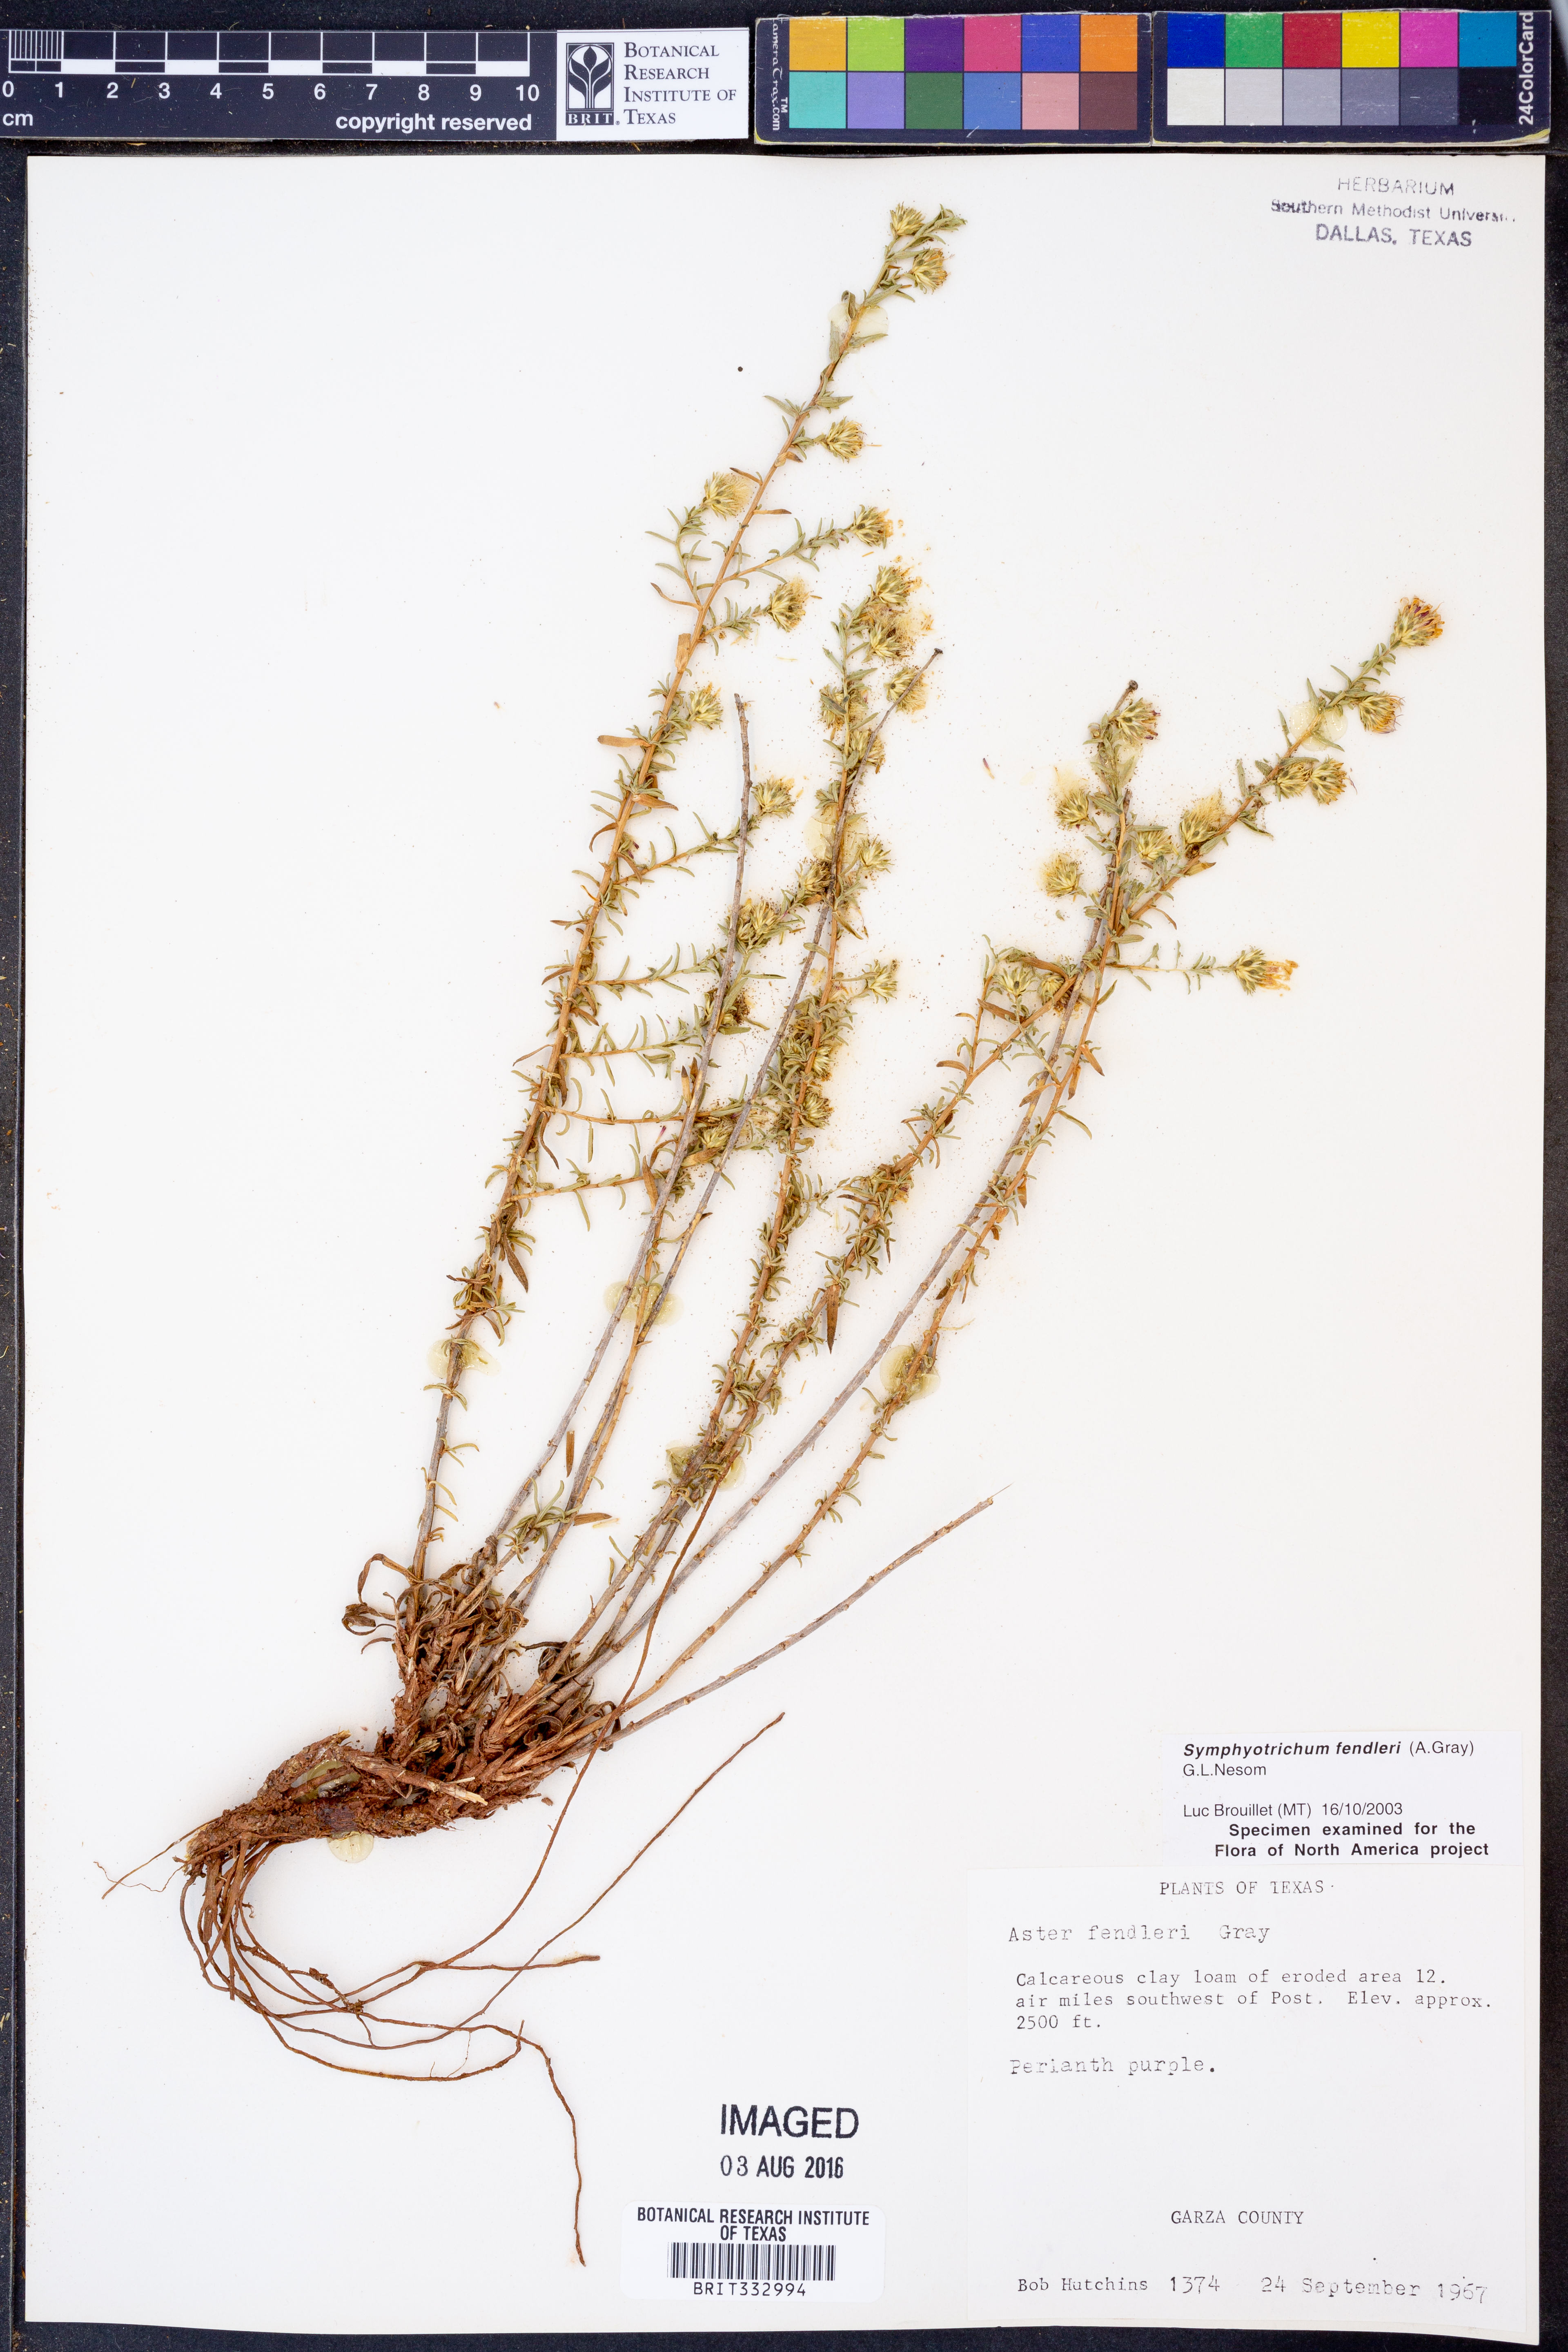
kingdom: Plantae
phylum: Tracheophyta
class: Magnoliopsida
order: Asterales
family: Asteraceae
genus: Symphyotrichum
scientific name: Symphyotrichum fendleri
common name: Fendler's aster
